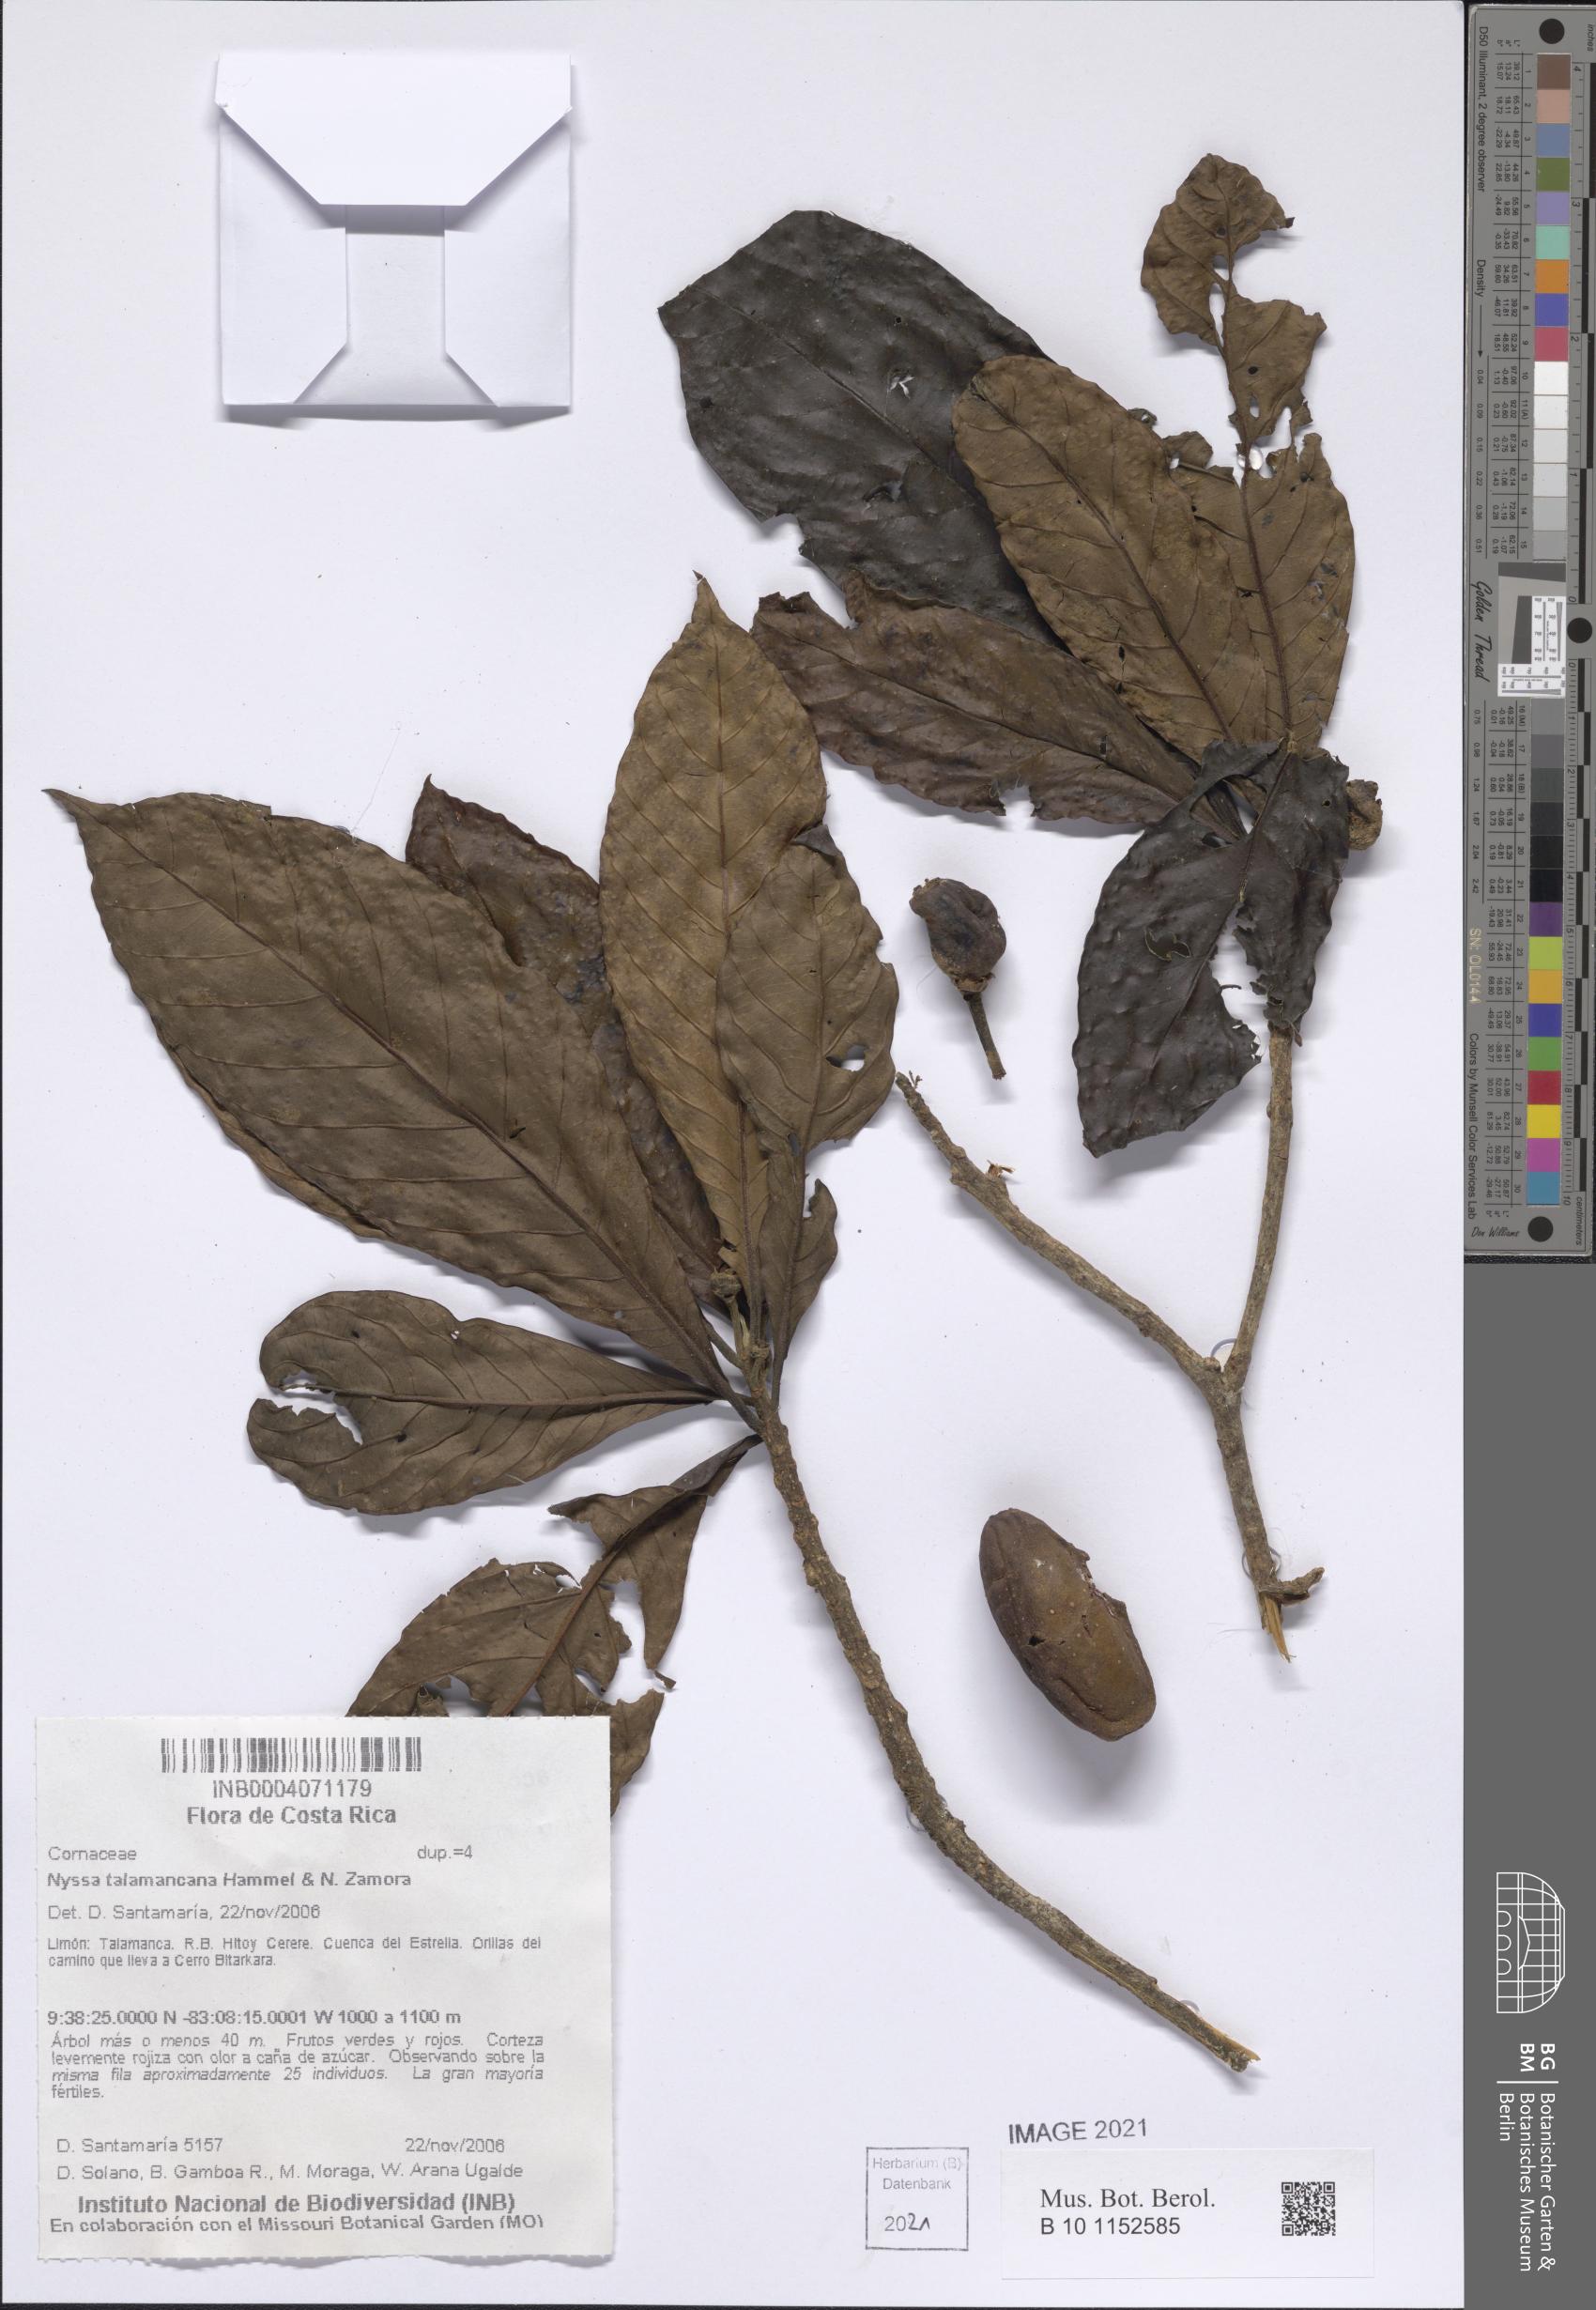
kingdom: Plantae
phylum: Tracheophyta
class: Magnoliopsida
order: Cornales
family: Nyssaceae
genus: Nyssa
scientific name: Nyssa talamancana
